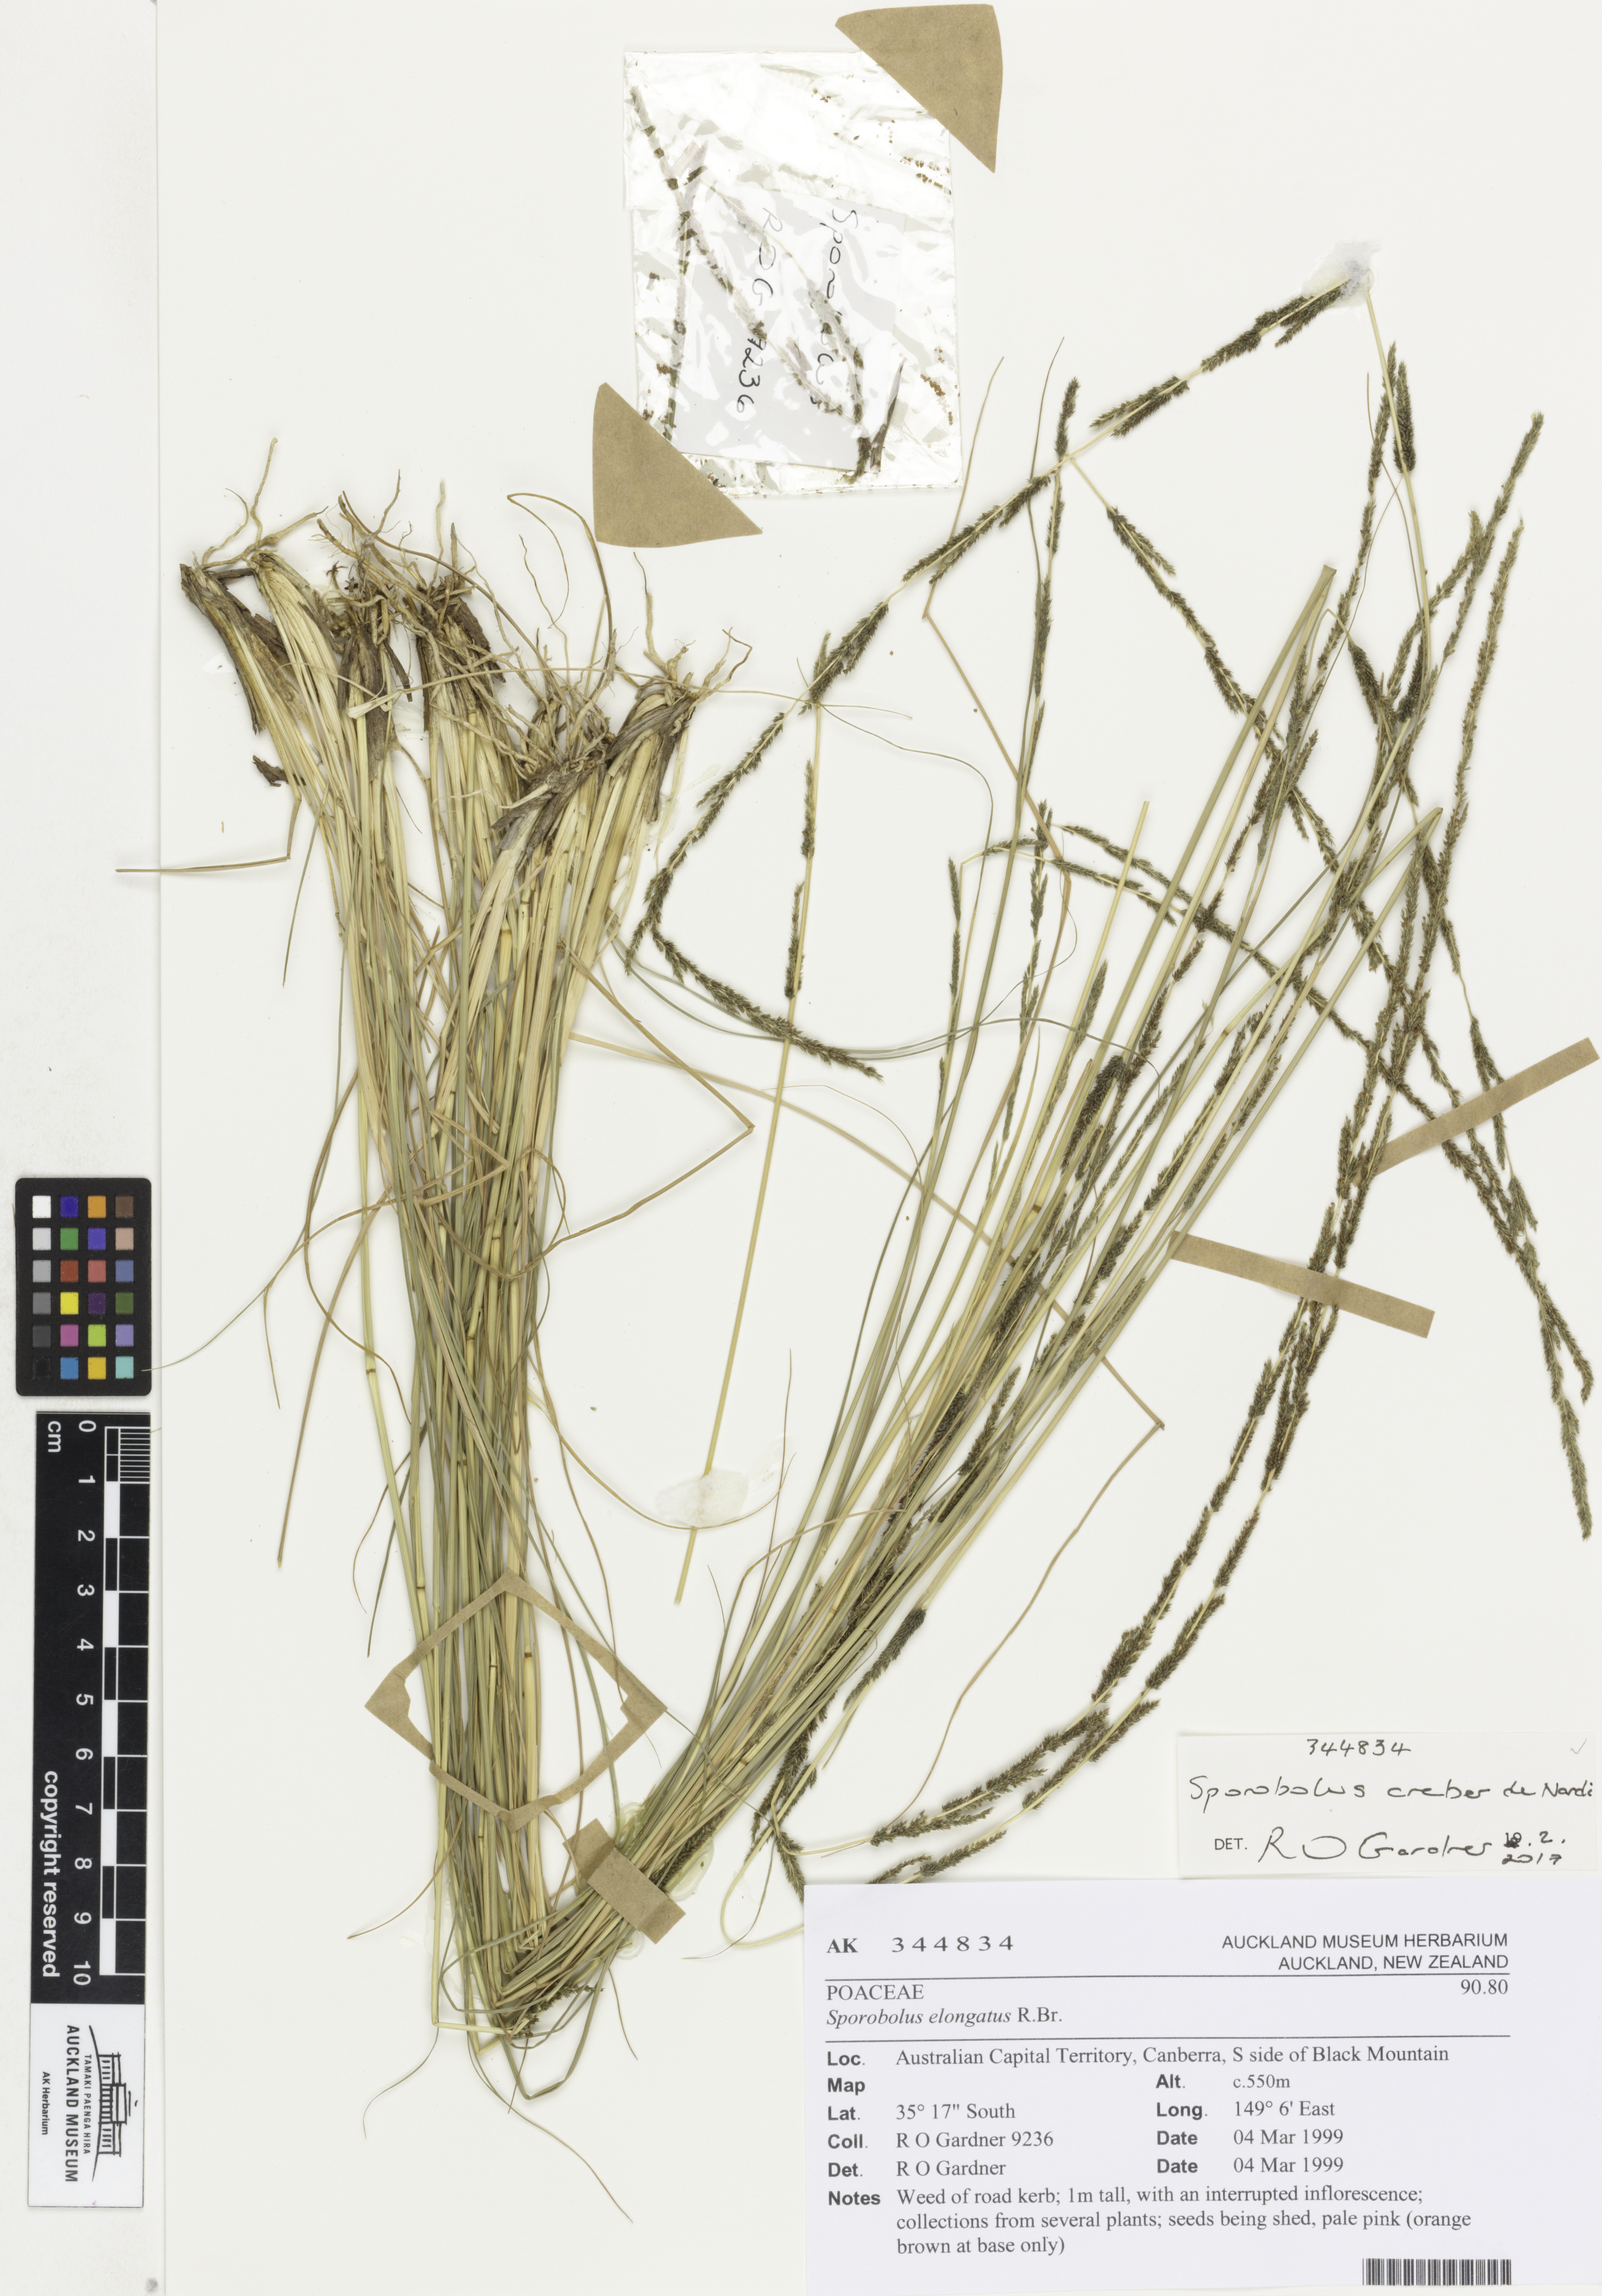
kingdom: Plantae
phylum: Tracheophyta
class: Liliopsida
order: Poales
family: Poaceae
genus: Sporobolus
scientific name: Sporobolus creber
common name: Slender dropseed
